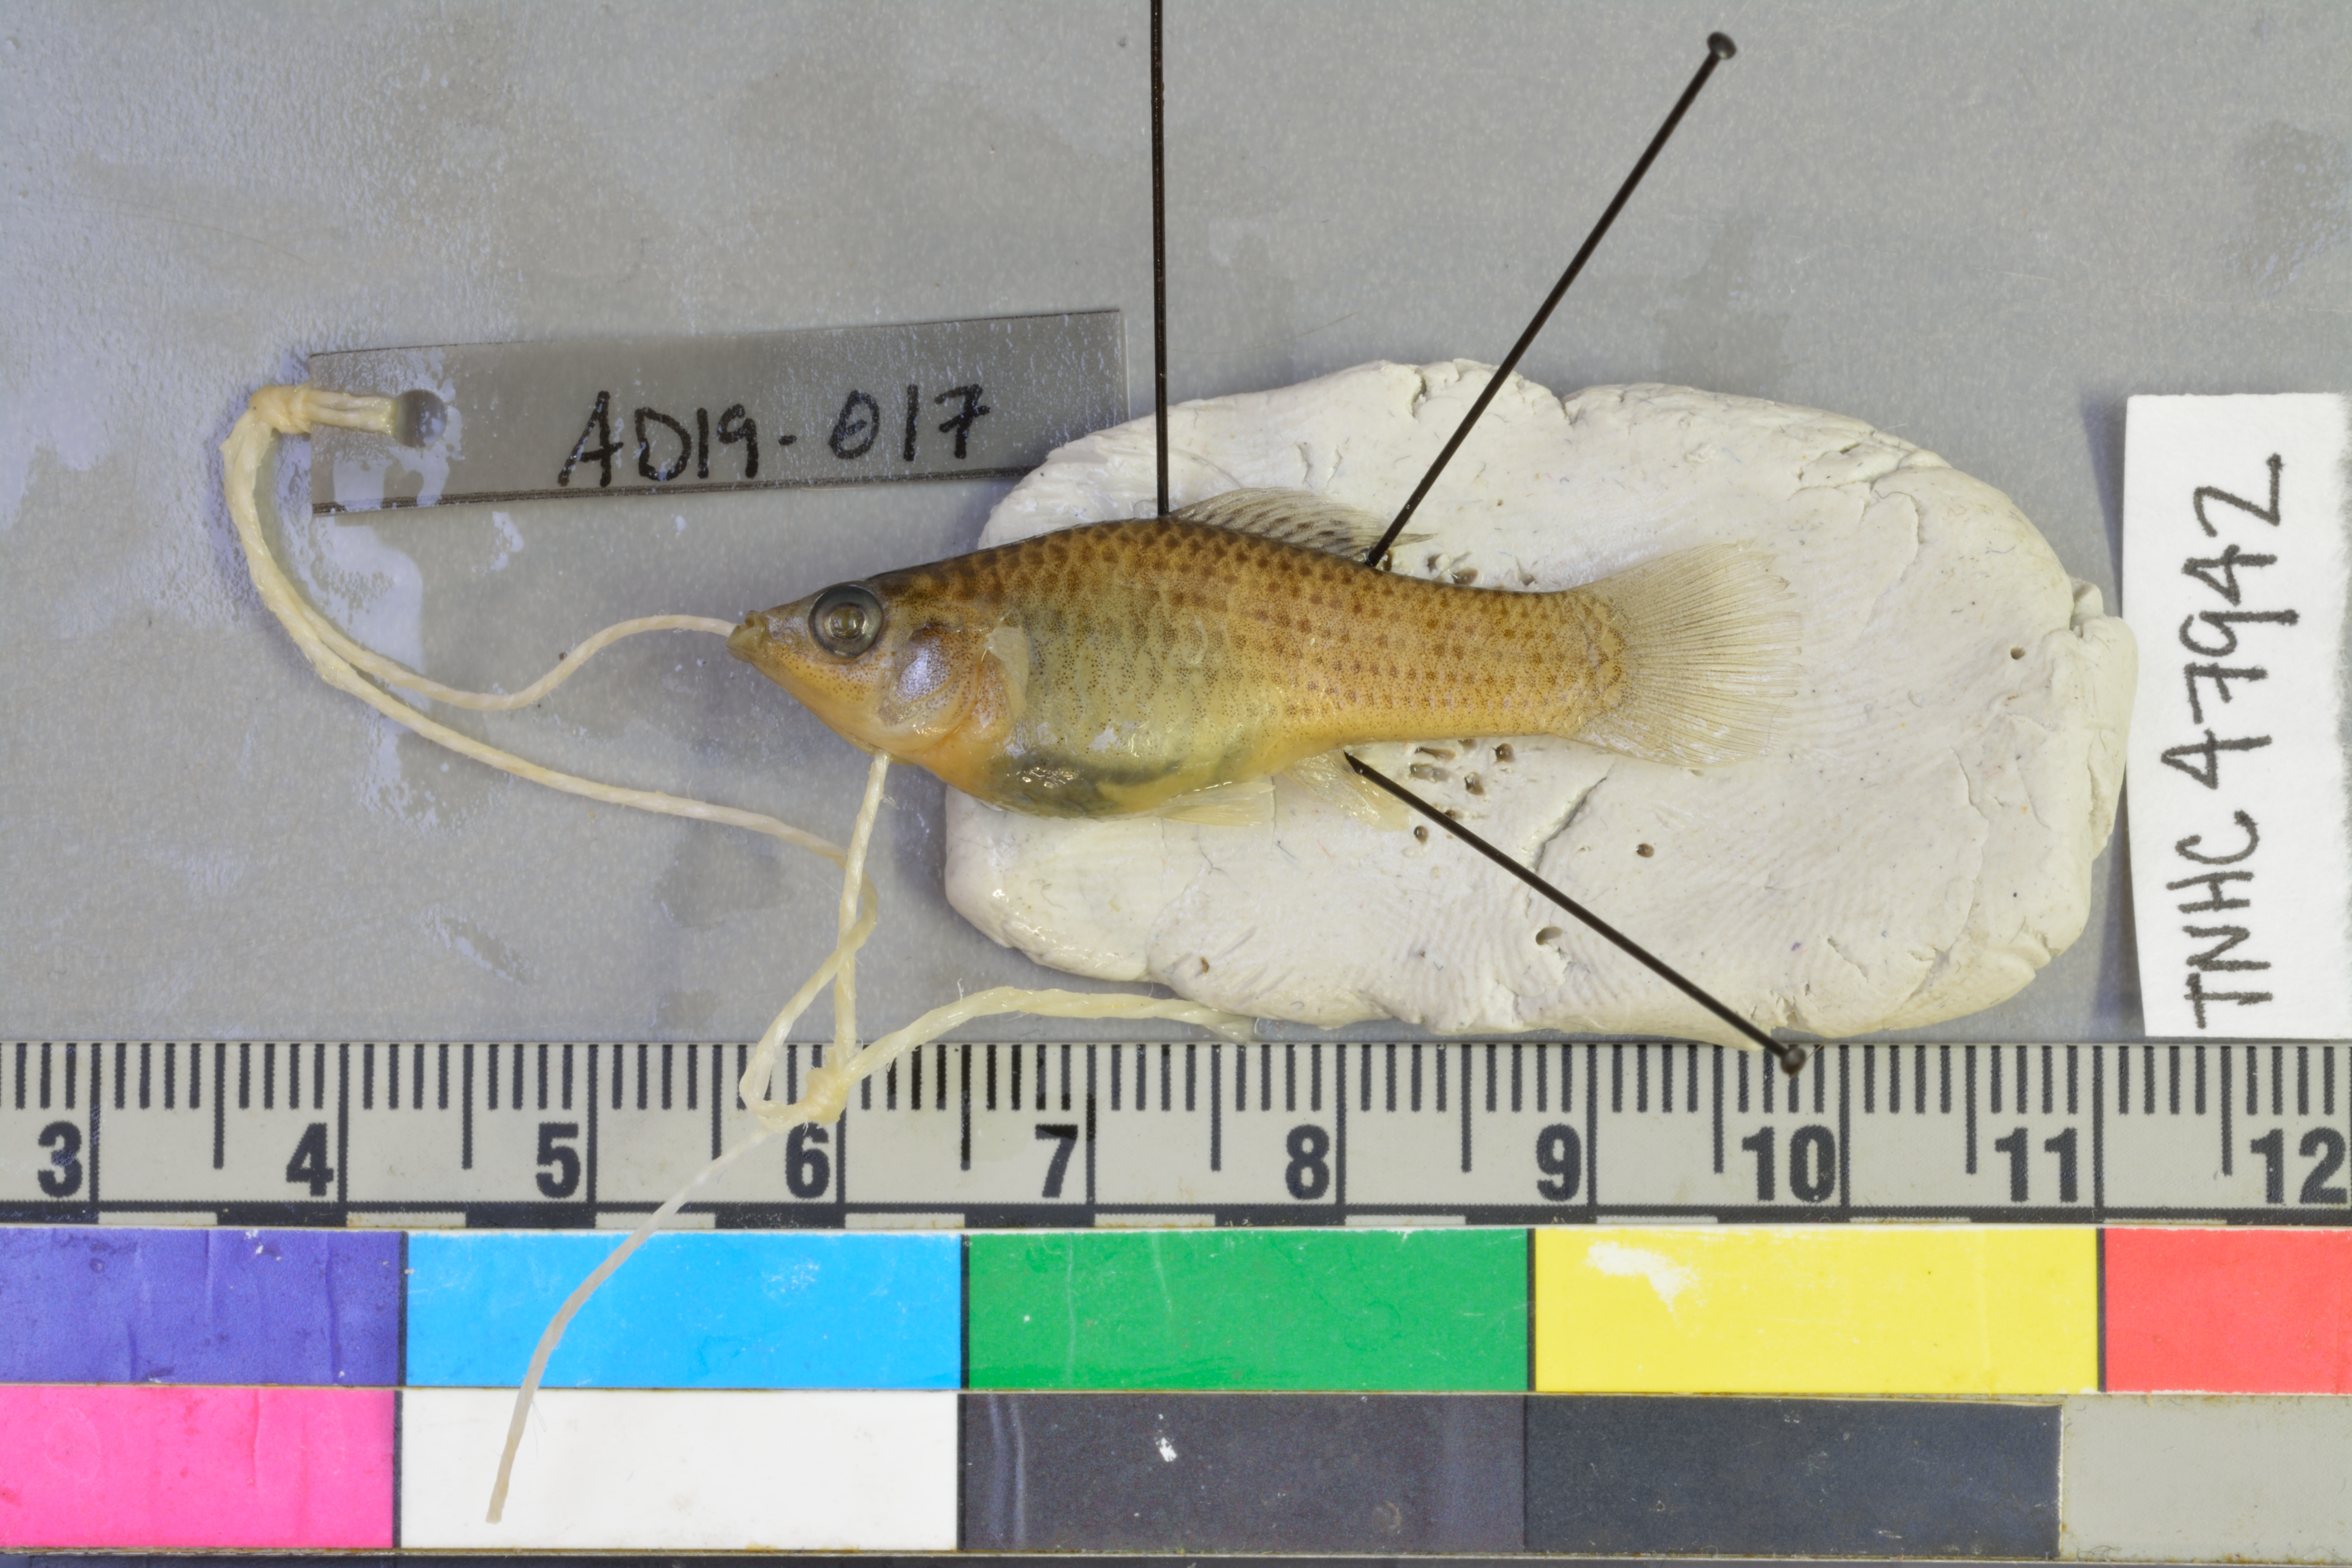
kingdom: Animalia
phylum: Chordata
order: Cyprinodontiformes
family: Poeciliidae
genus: Poecilia
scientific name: Poecilia latipinna
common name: Sailfin molly
